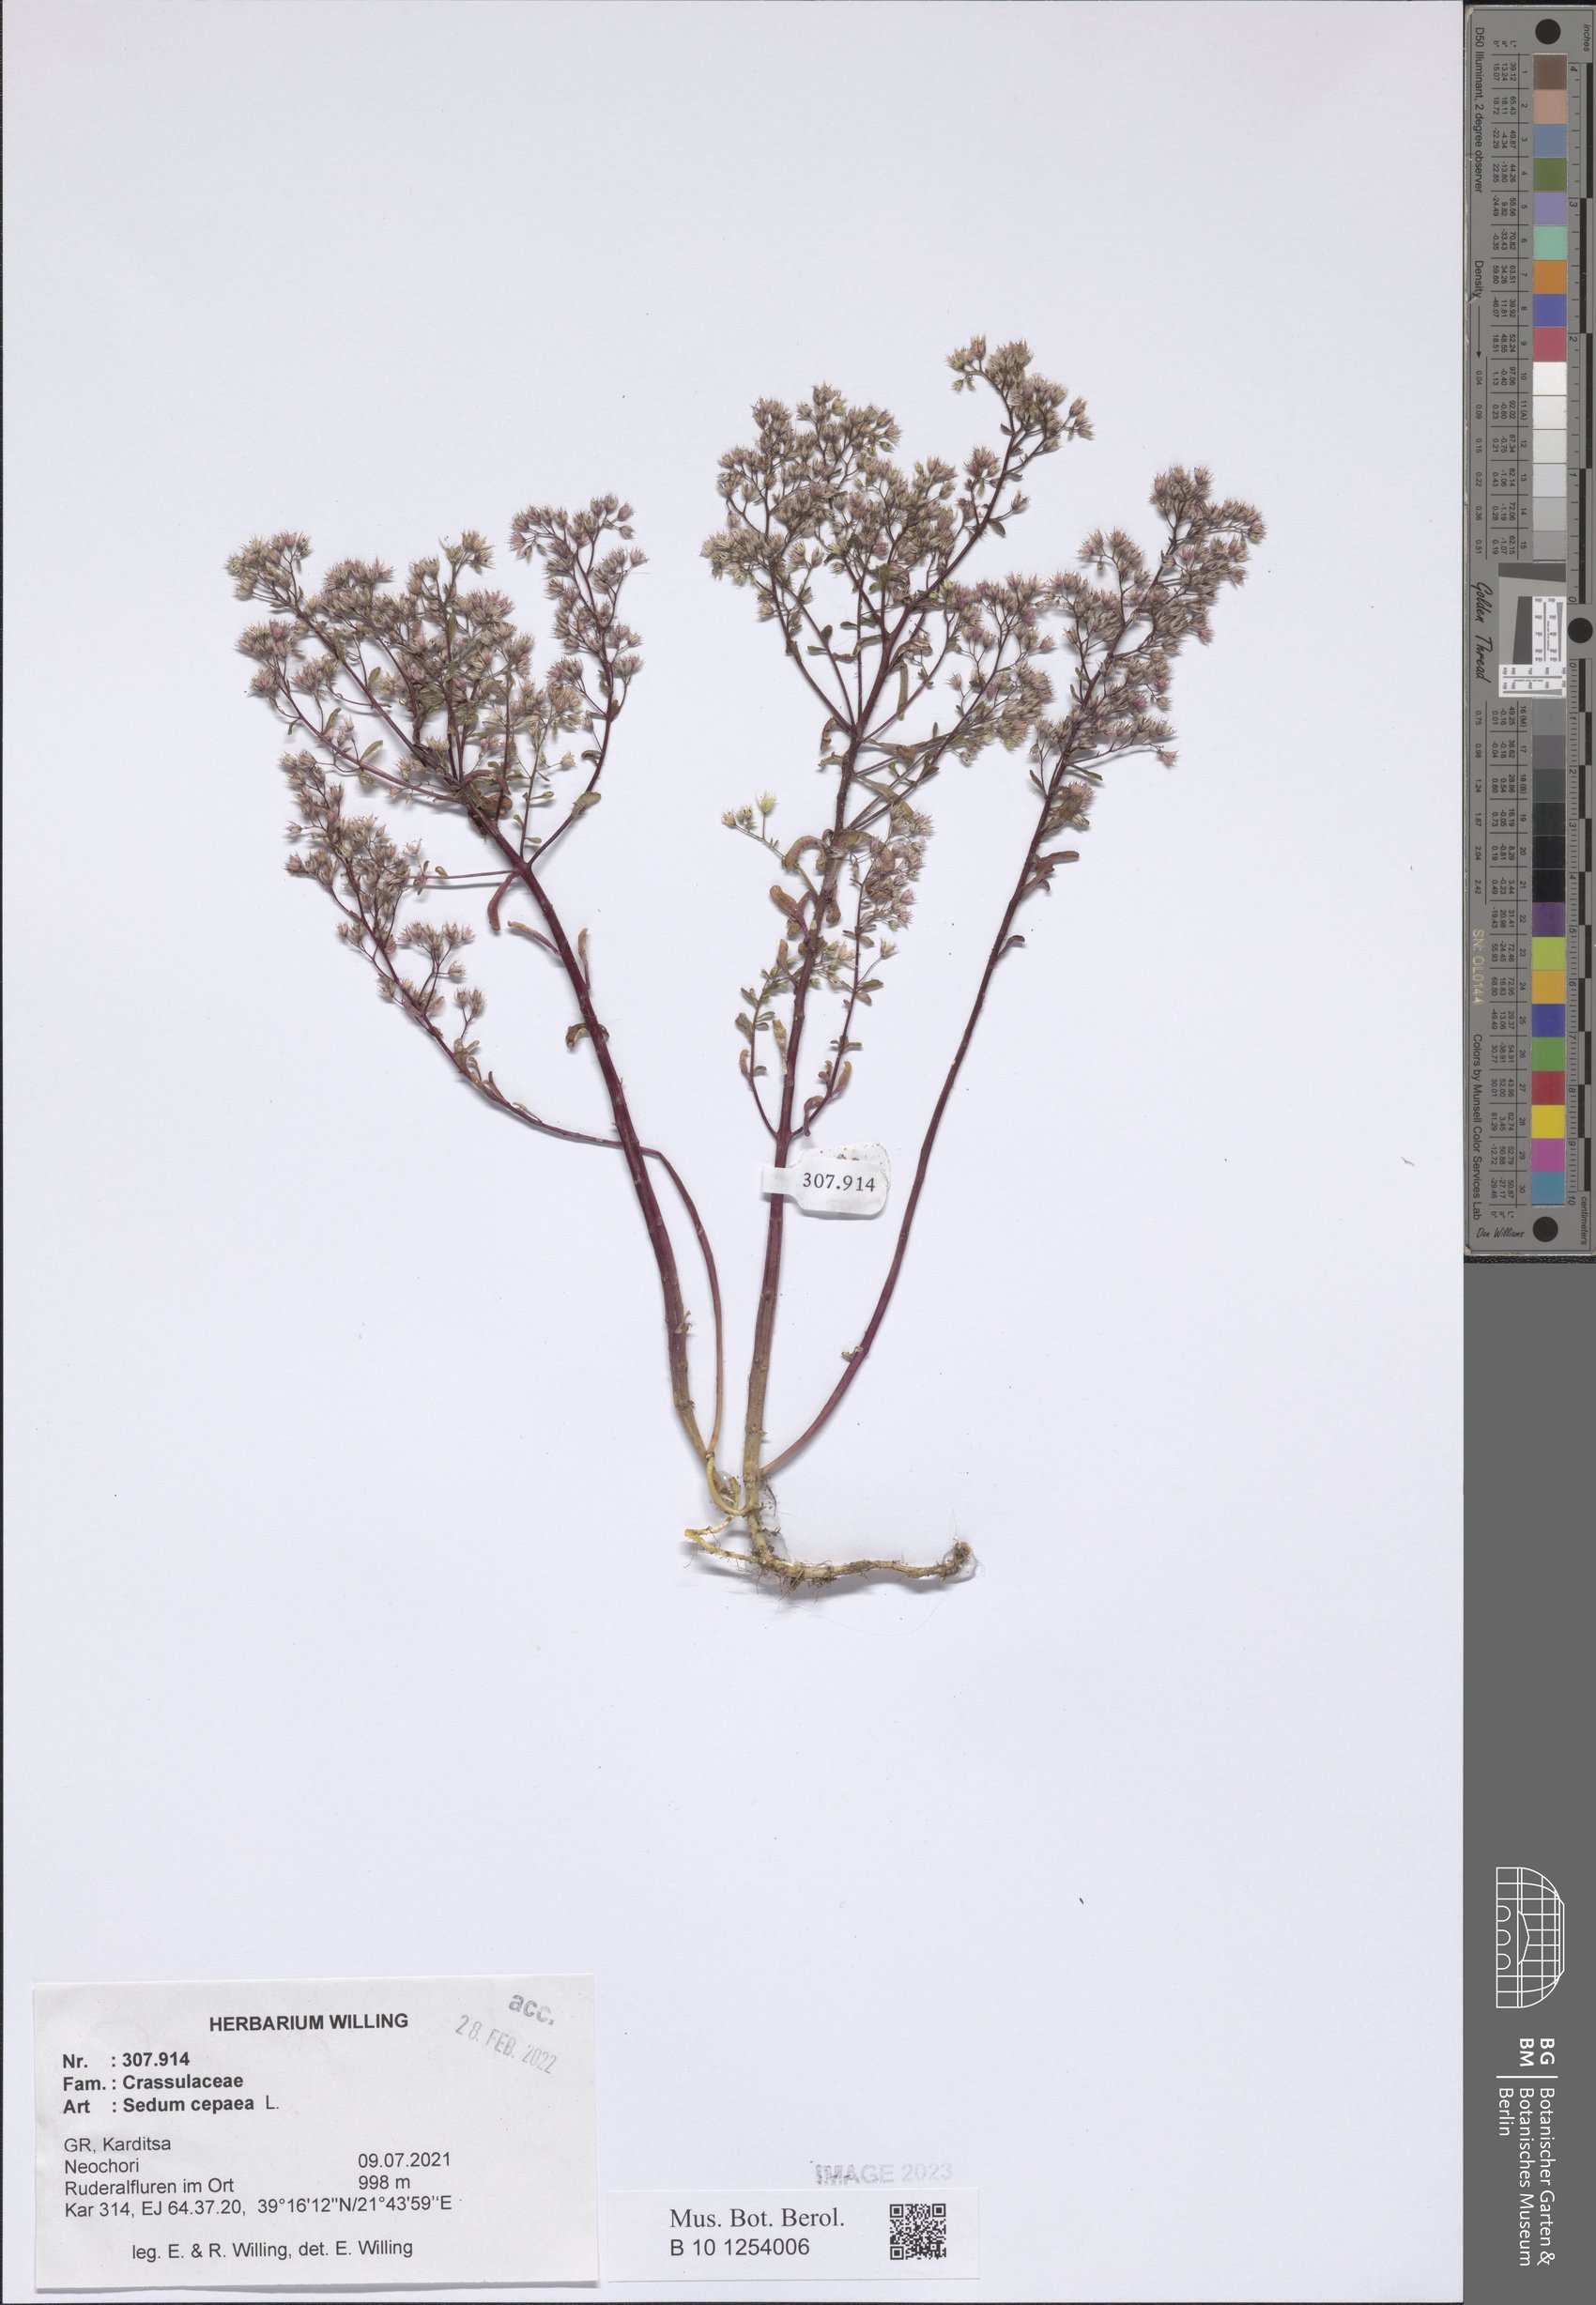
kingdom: Plantae
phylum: Tracheophyta
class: Magnoliopsida
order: Saxifragales
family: Crassulaceae
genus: Sedum
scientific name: Sedum cepaea
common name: Pink stonecrop
